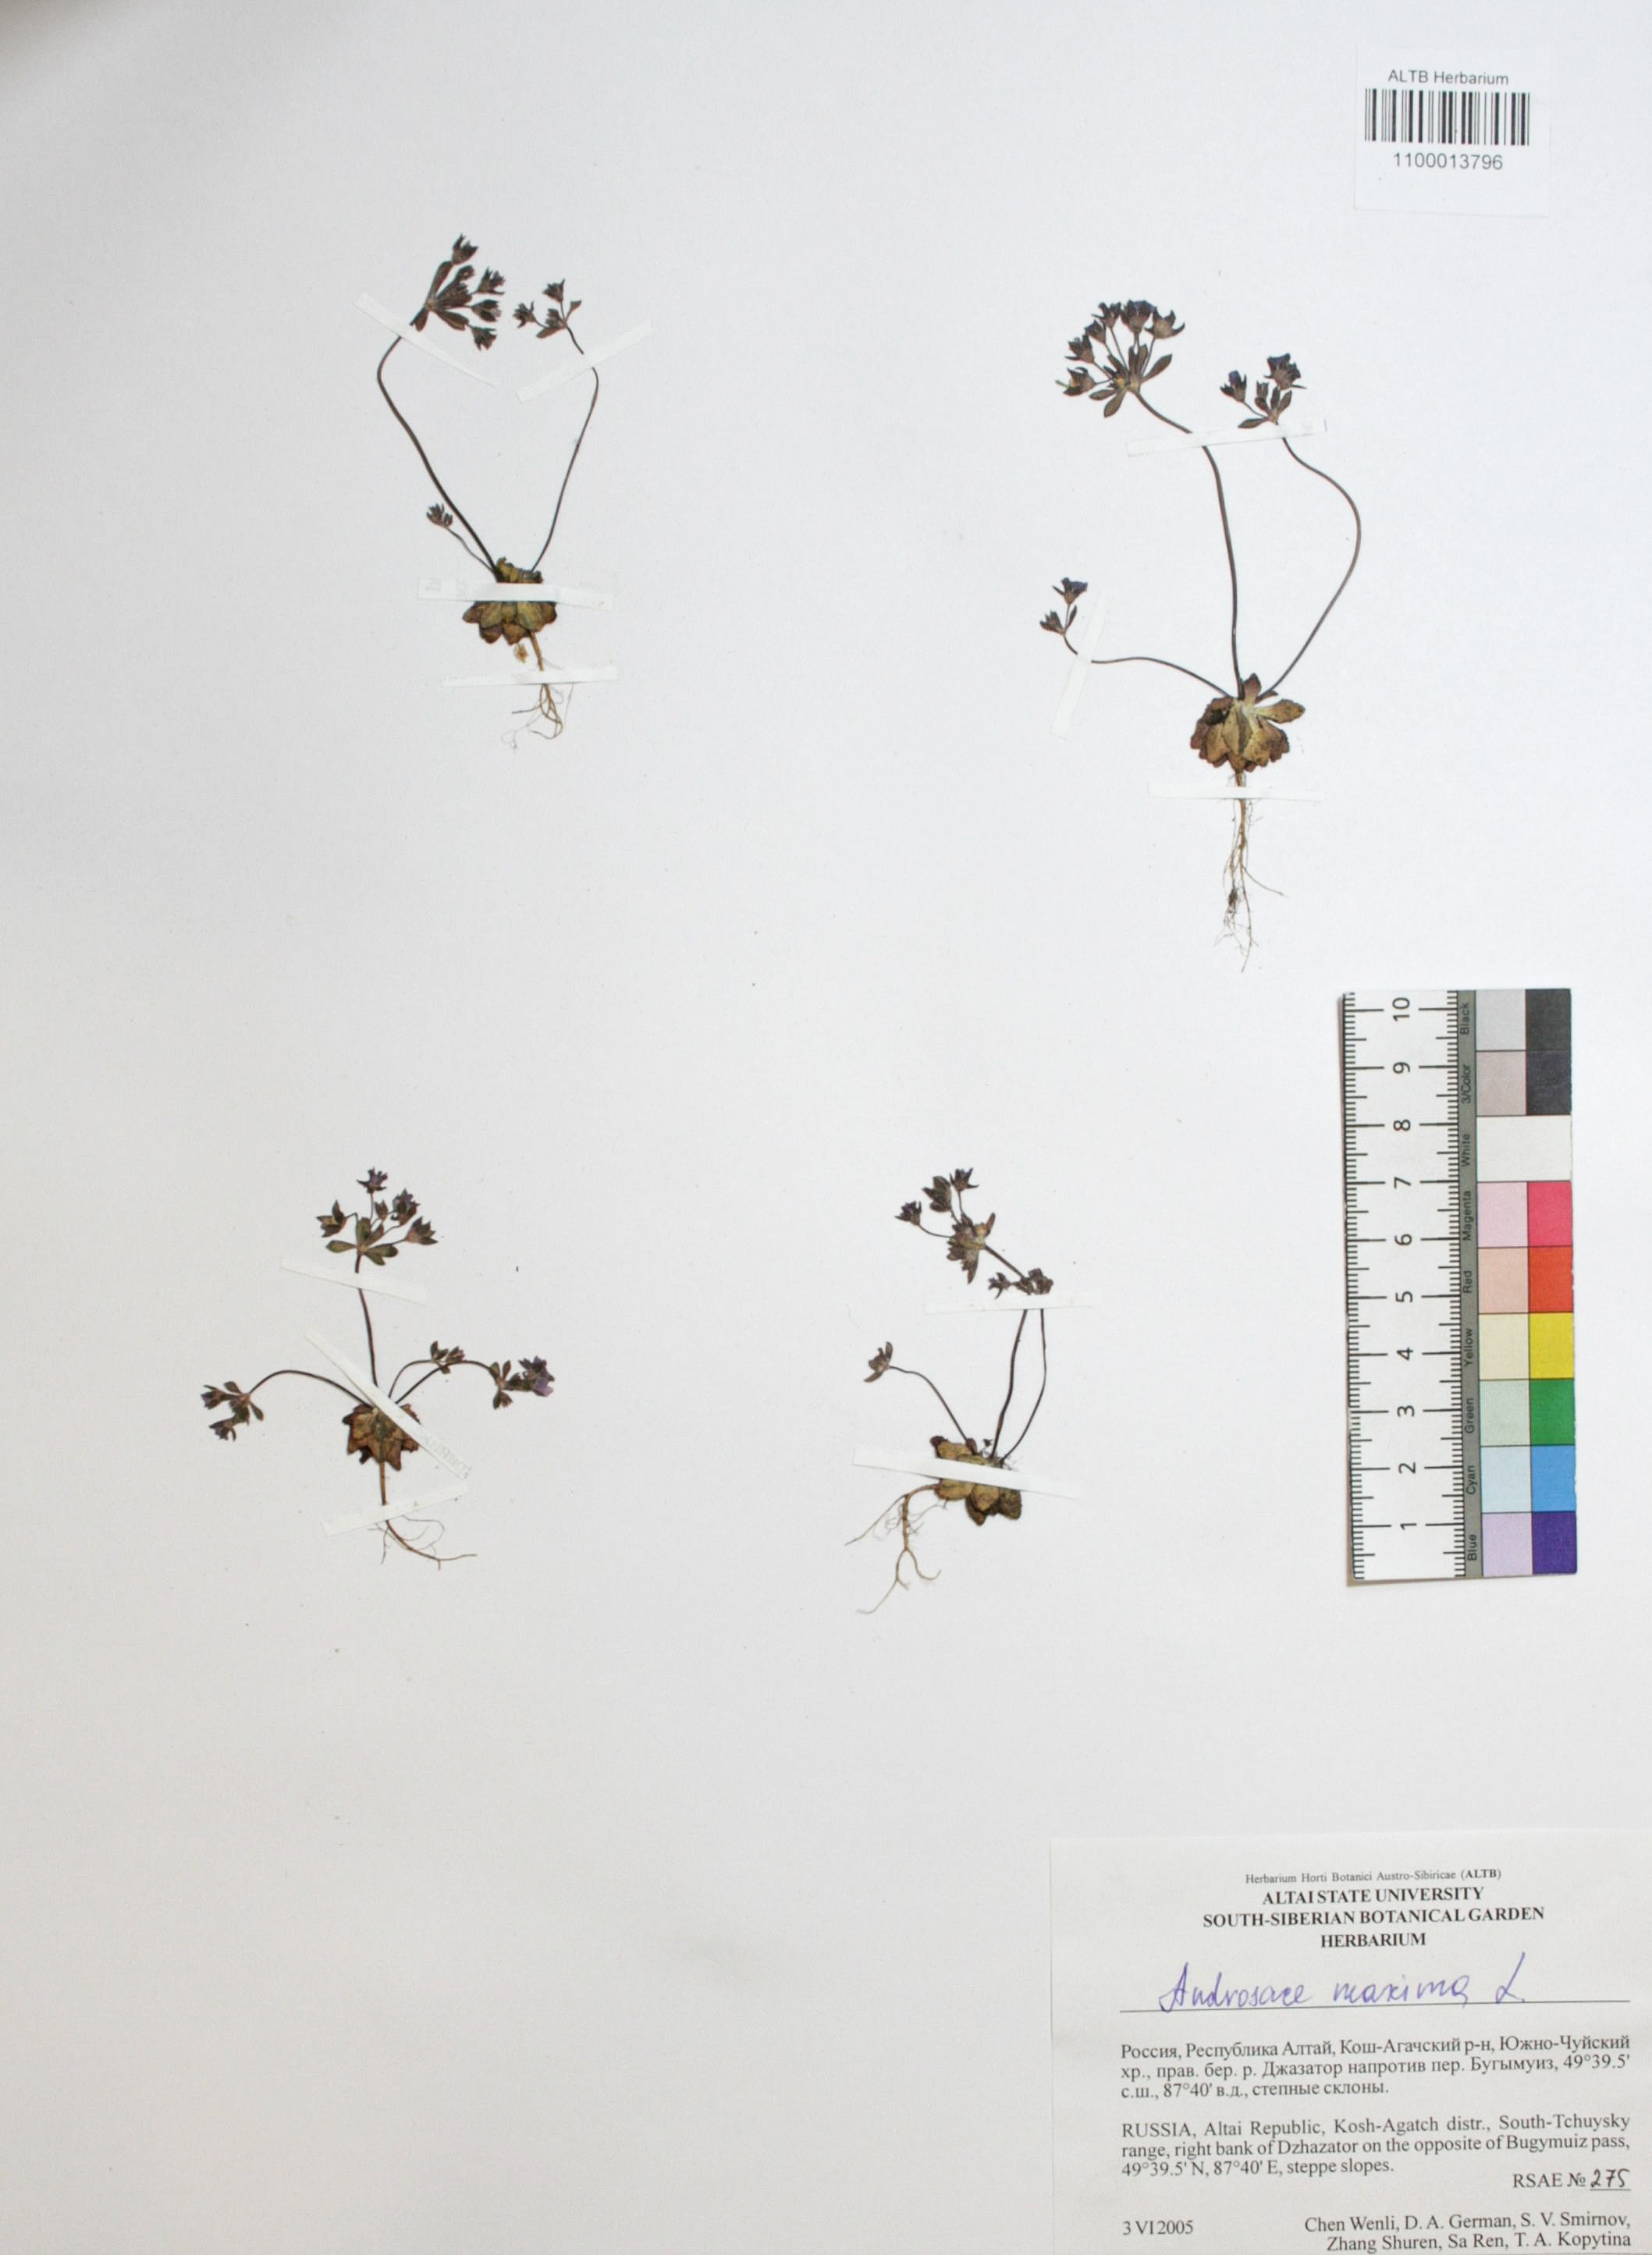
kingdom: Plantae
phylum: Tracheophyta
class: Magnoliopsida
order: Ericales
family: Primulaceae
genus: Androsace
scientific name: Androsace maxima
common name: Annual androsace
